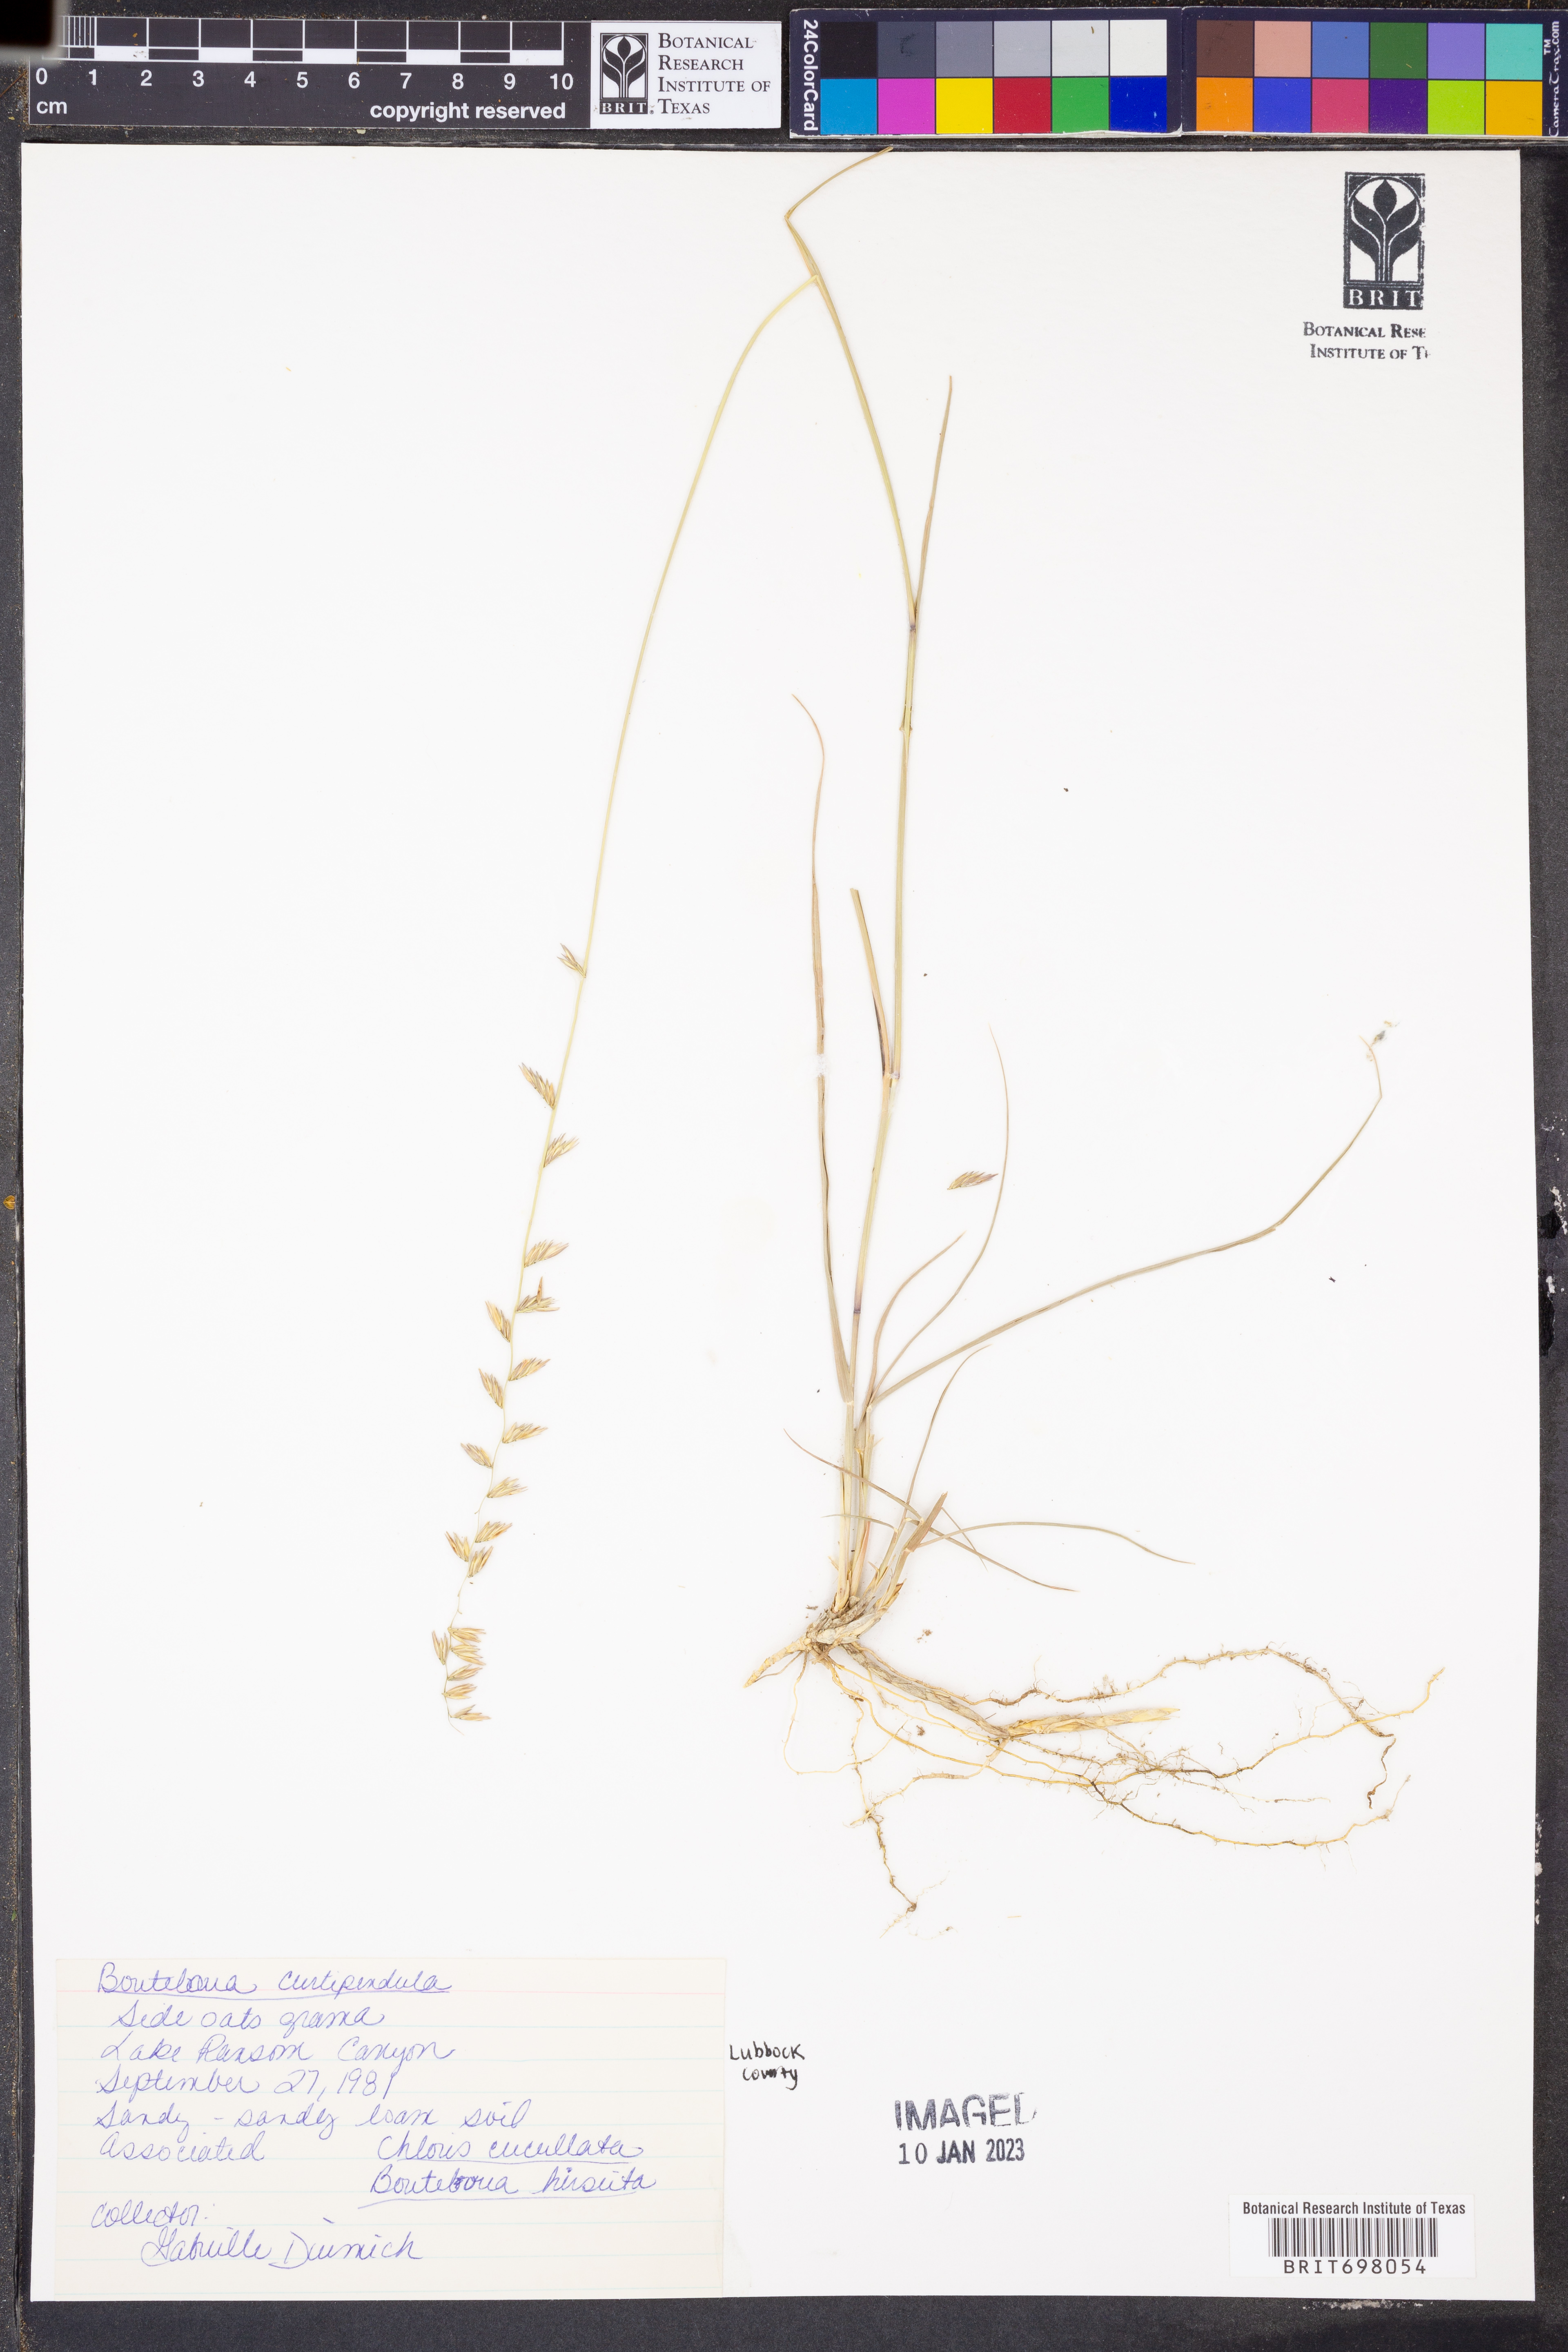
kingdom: Plantae
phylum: Tracheophyta
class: Liliopsida
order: Poales
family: Poaceae
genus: Bouteloua
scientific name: Bouteloua curtipendula
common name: Side-oats grama
